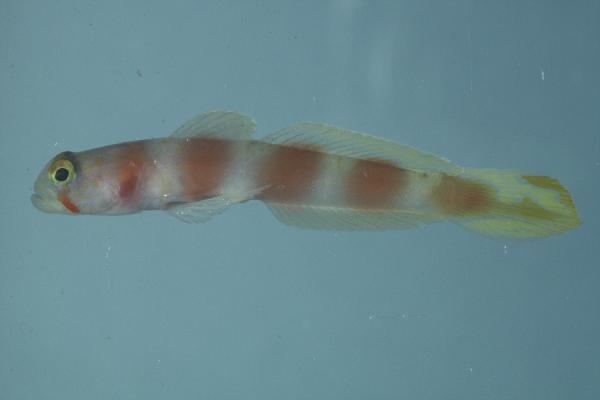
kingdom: Animalia
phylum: Chordata
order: Perciformes
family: Gobiidae
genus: Amblyeleotris
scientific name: Amblyeleotris aurora
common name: Pinkbar goby
